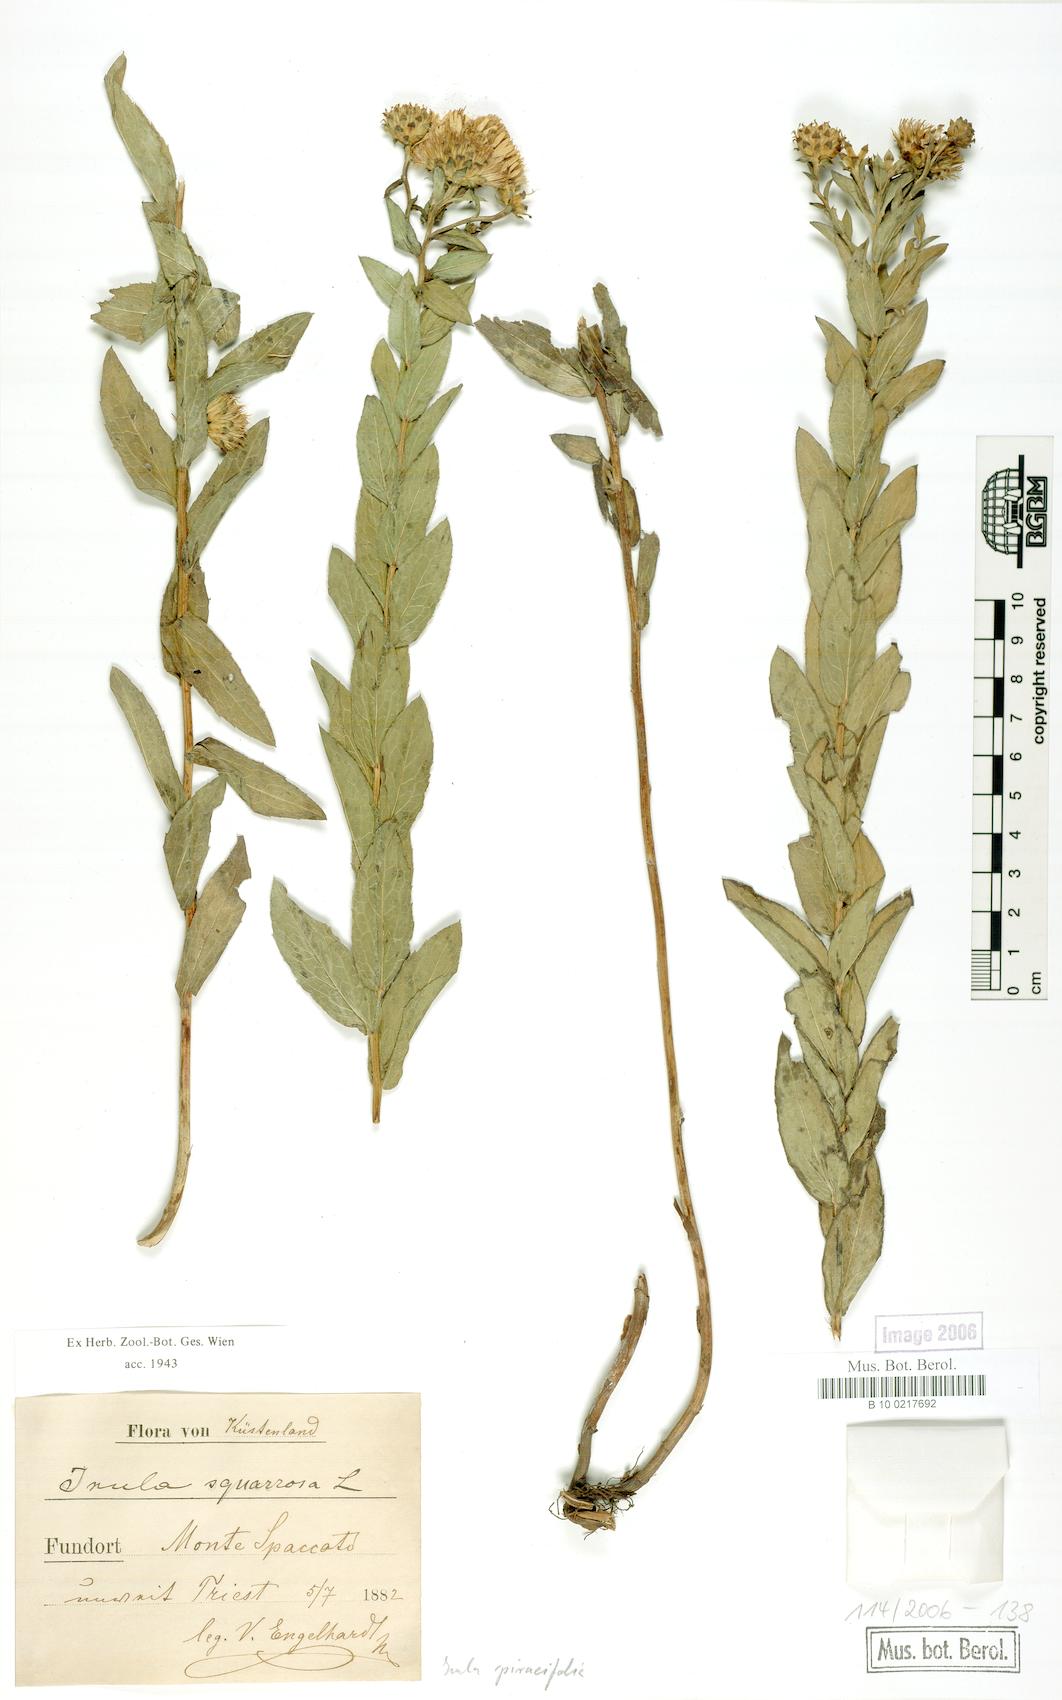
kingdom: Plantae
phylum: Tracheophyta
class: Magnoliopsida
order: Asterales
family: Asteraceae
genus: Pentanema
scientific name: Pentanema spiraeifolium
